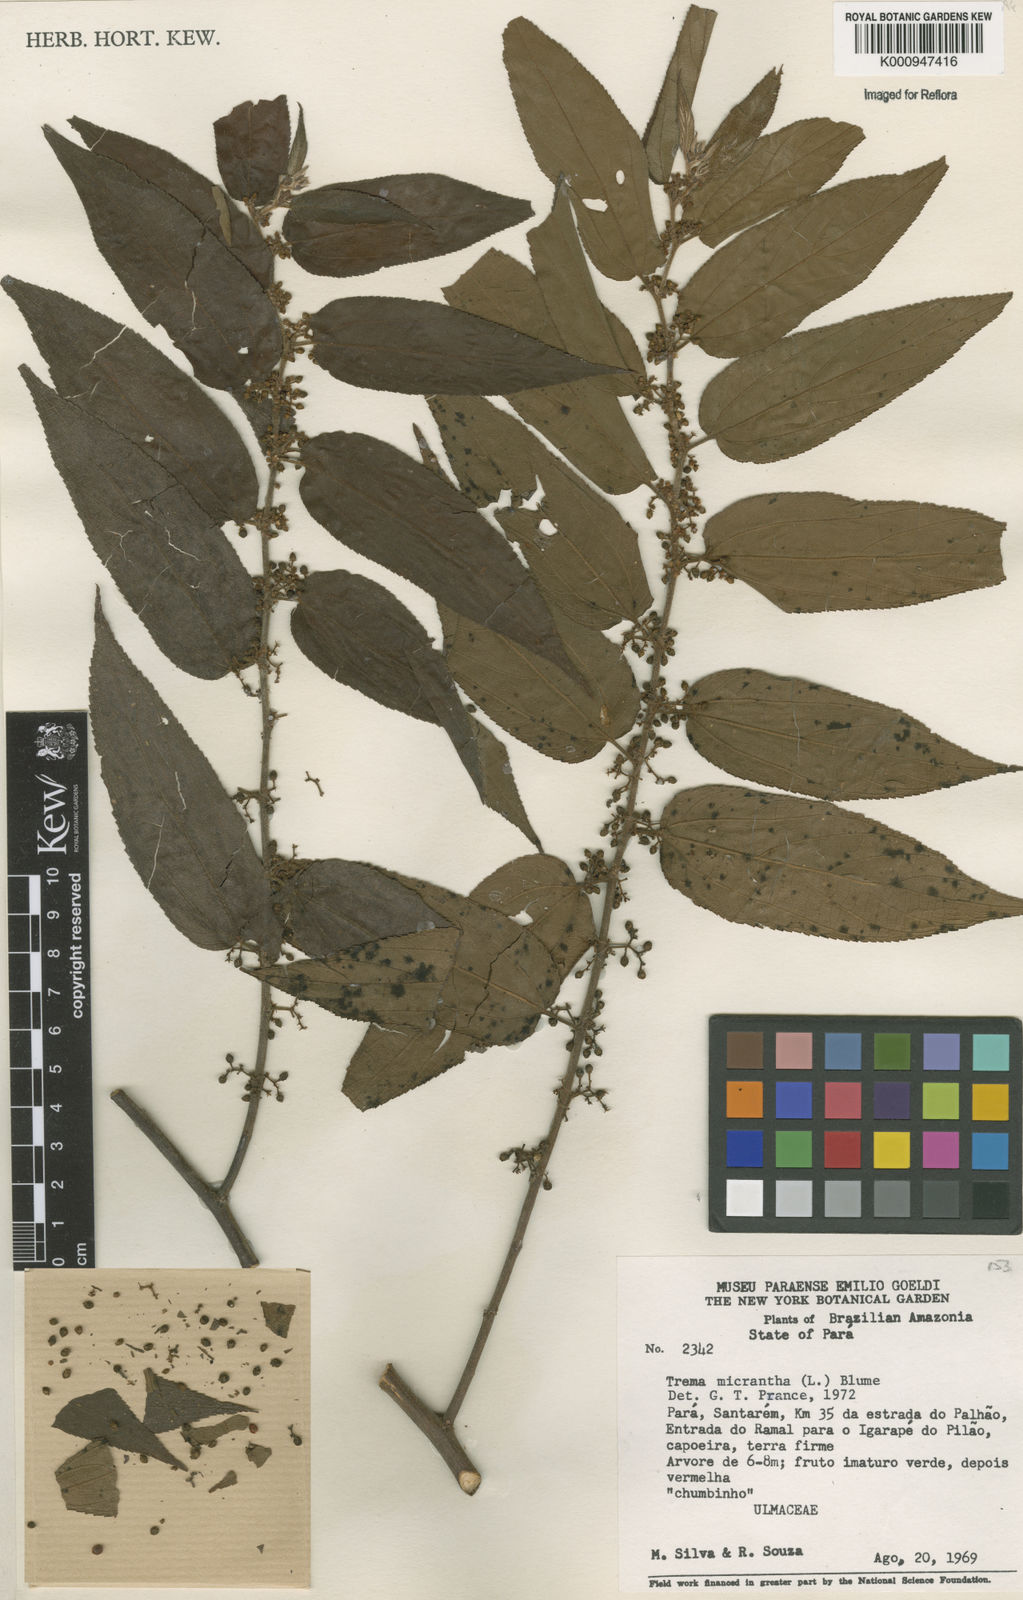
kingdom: Plantae
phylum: Tracheophyta
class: Magnoliopsida
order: Rosales
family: Cannabaceae
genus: Trema
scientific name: Trema micranthum
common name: Jamaican nettletree
